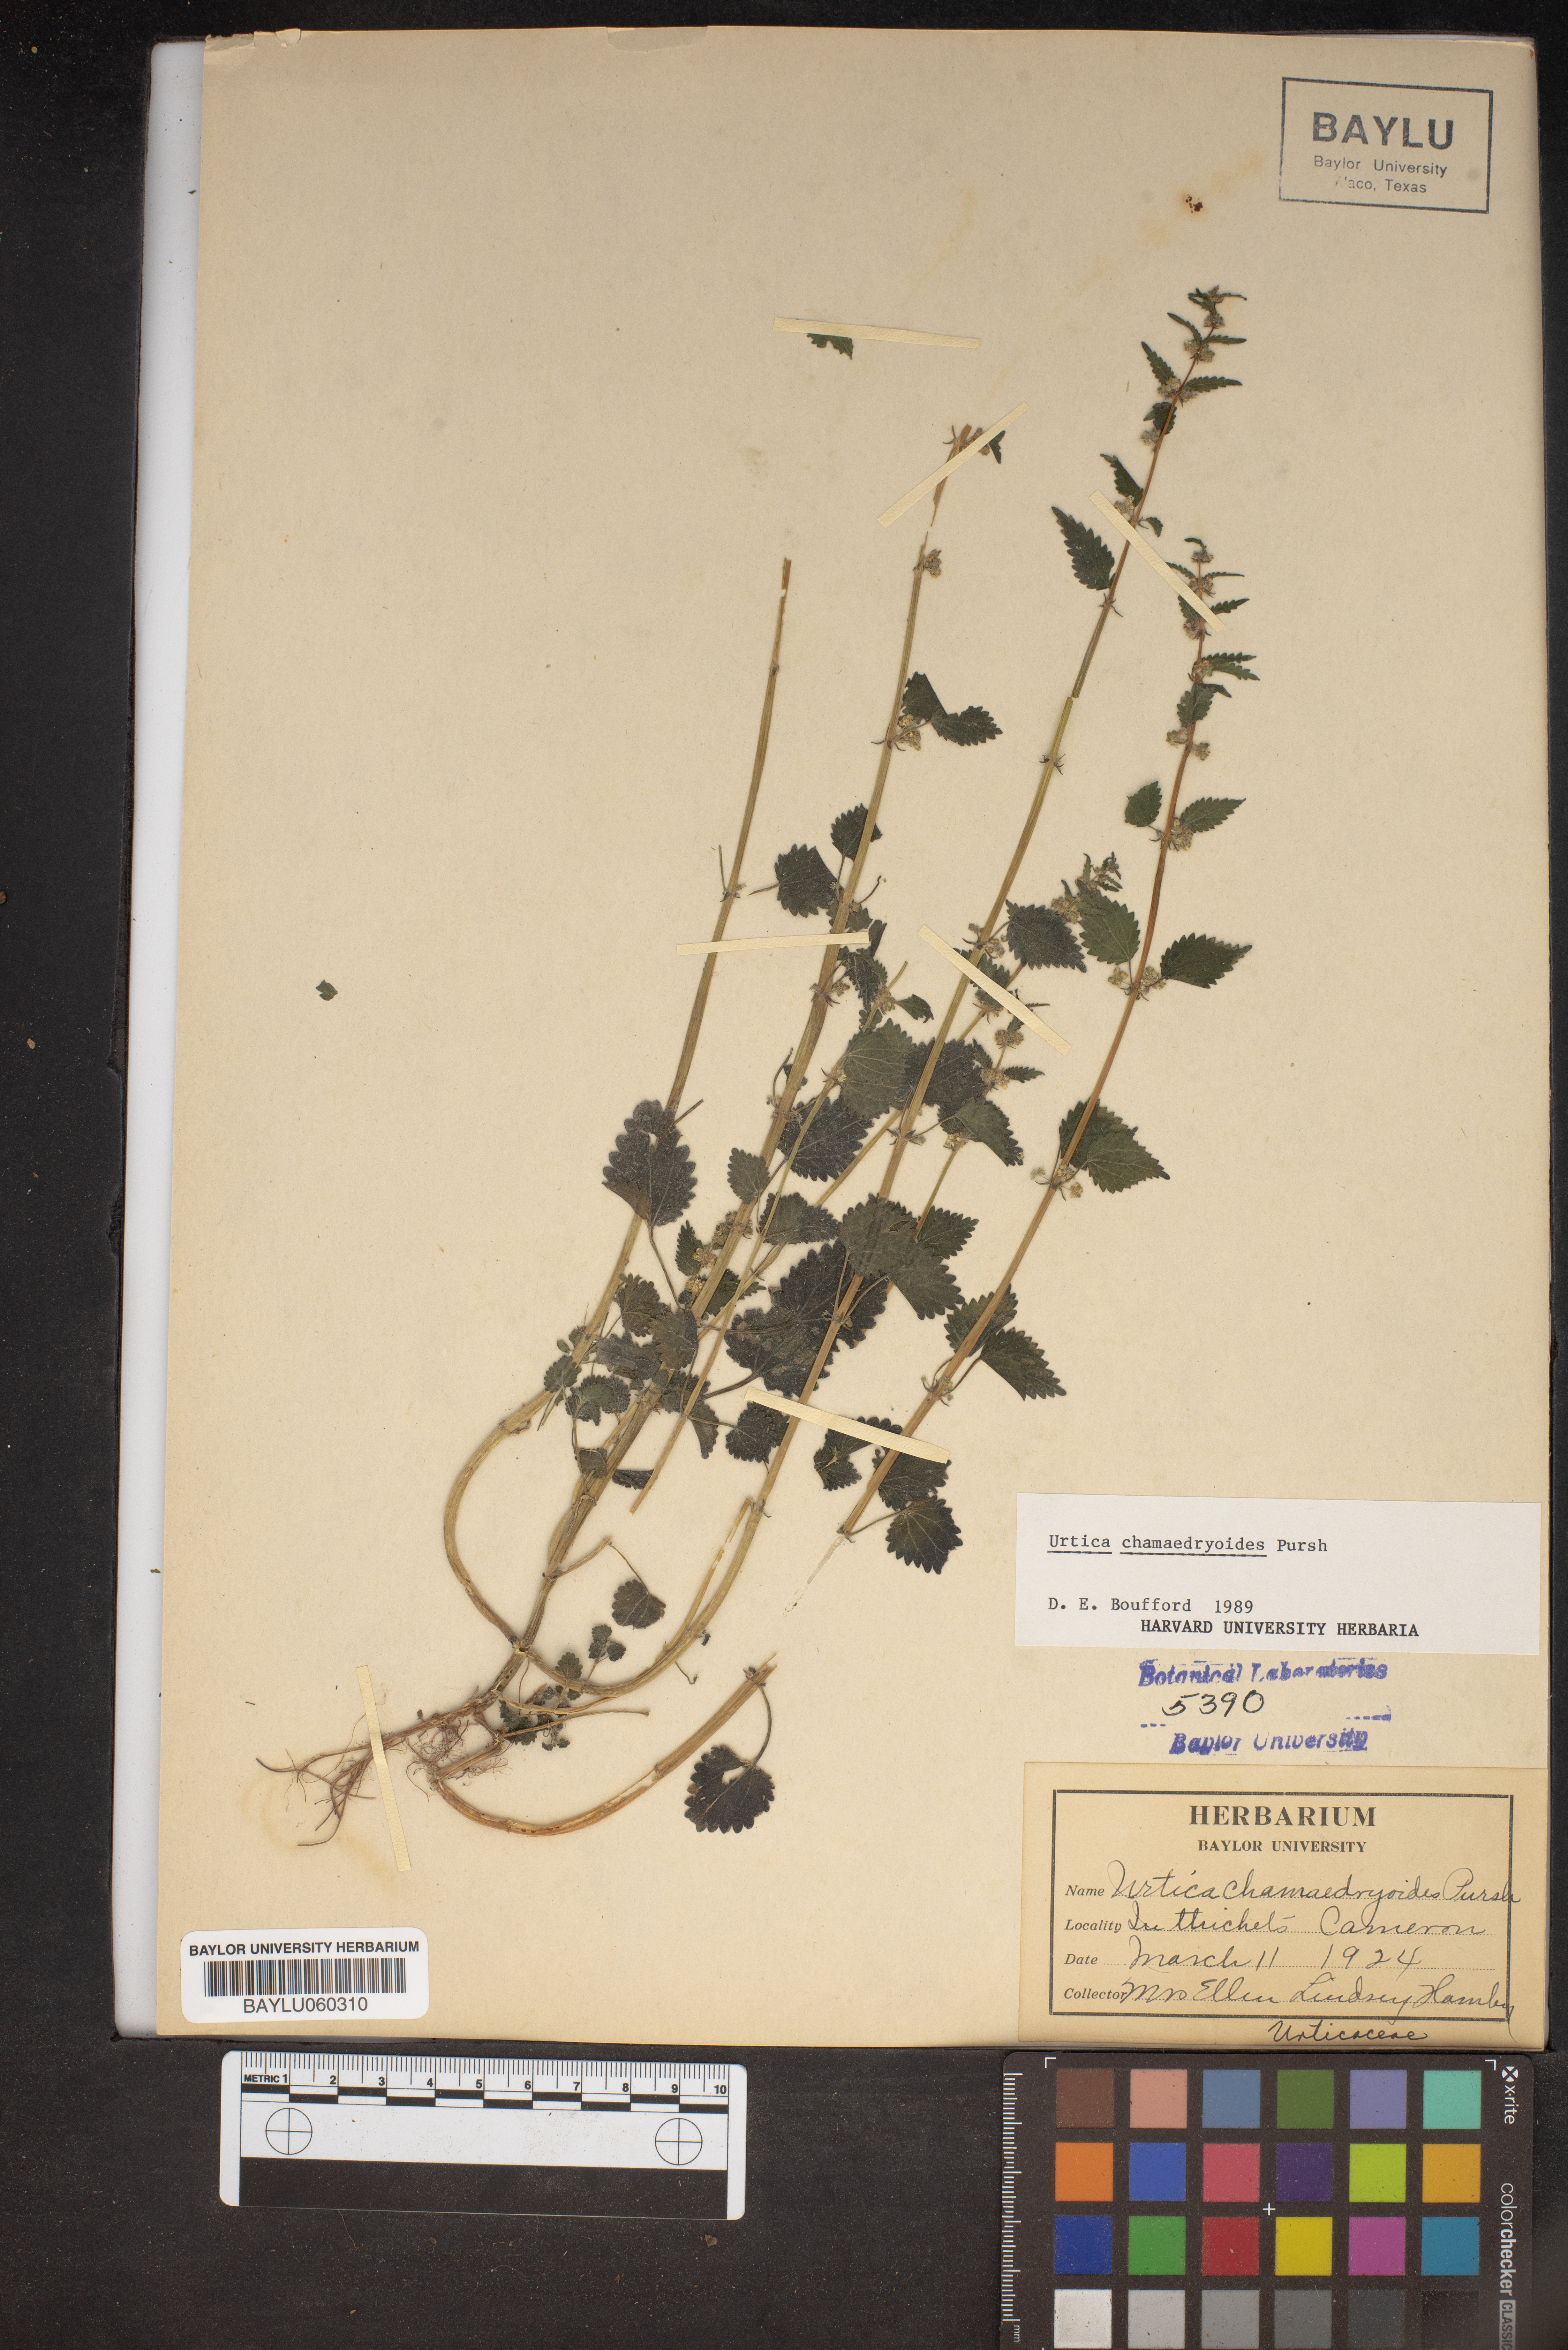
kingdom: Plantae
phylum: Tracheophyta
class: Magnoliopsida
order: Rosales
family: Urticaceae
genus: Urtica
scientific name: Urtica chamaedryoides
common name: Heart-leaf nettle
